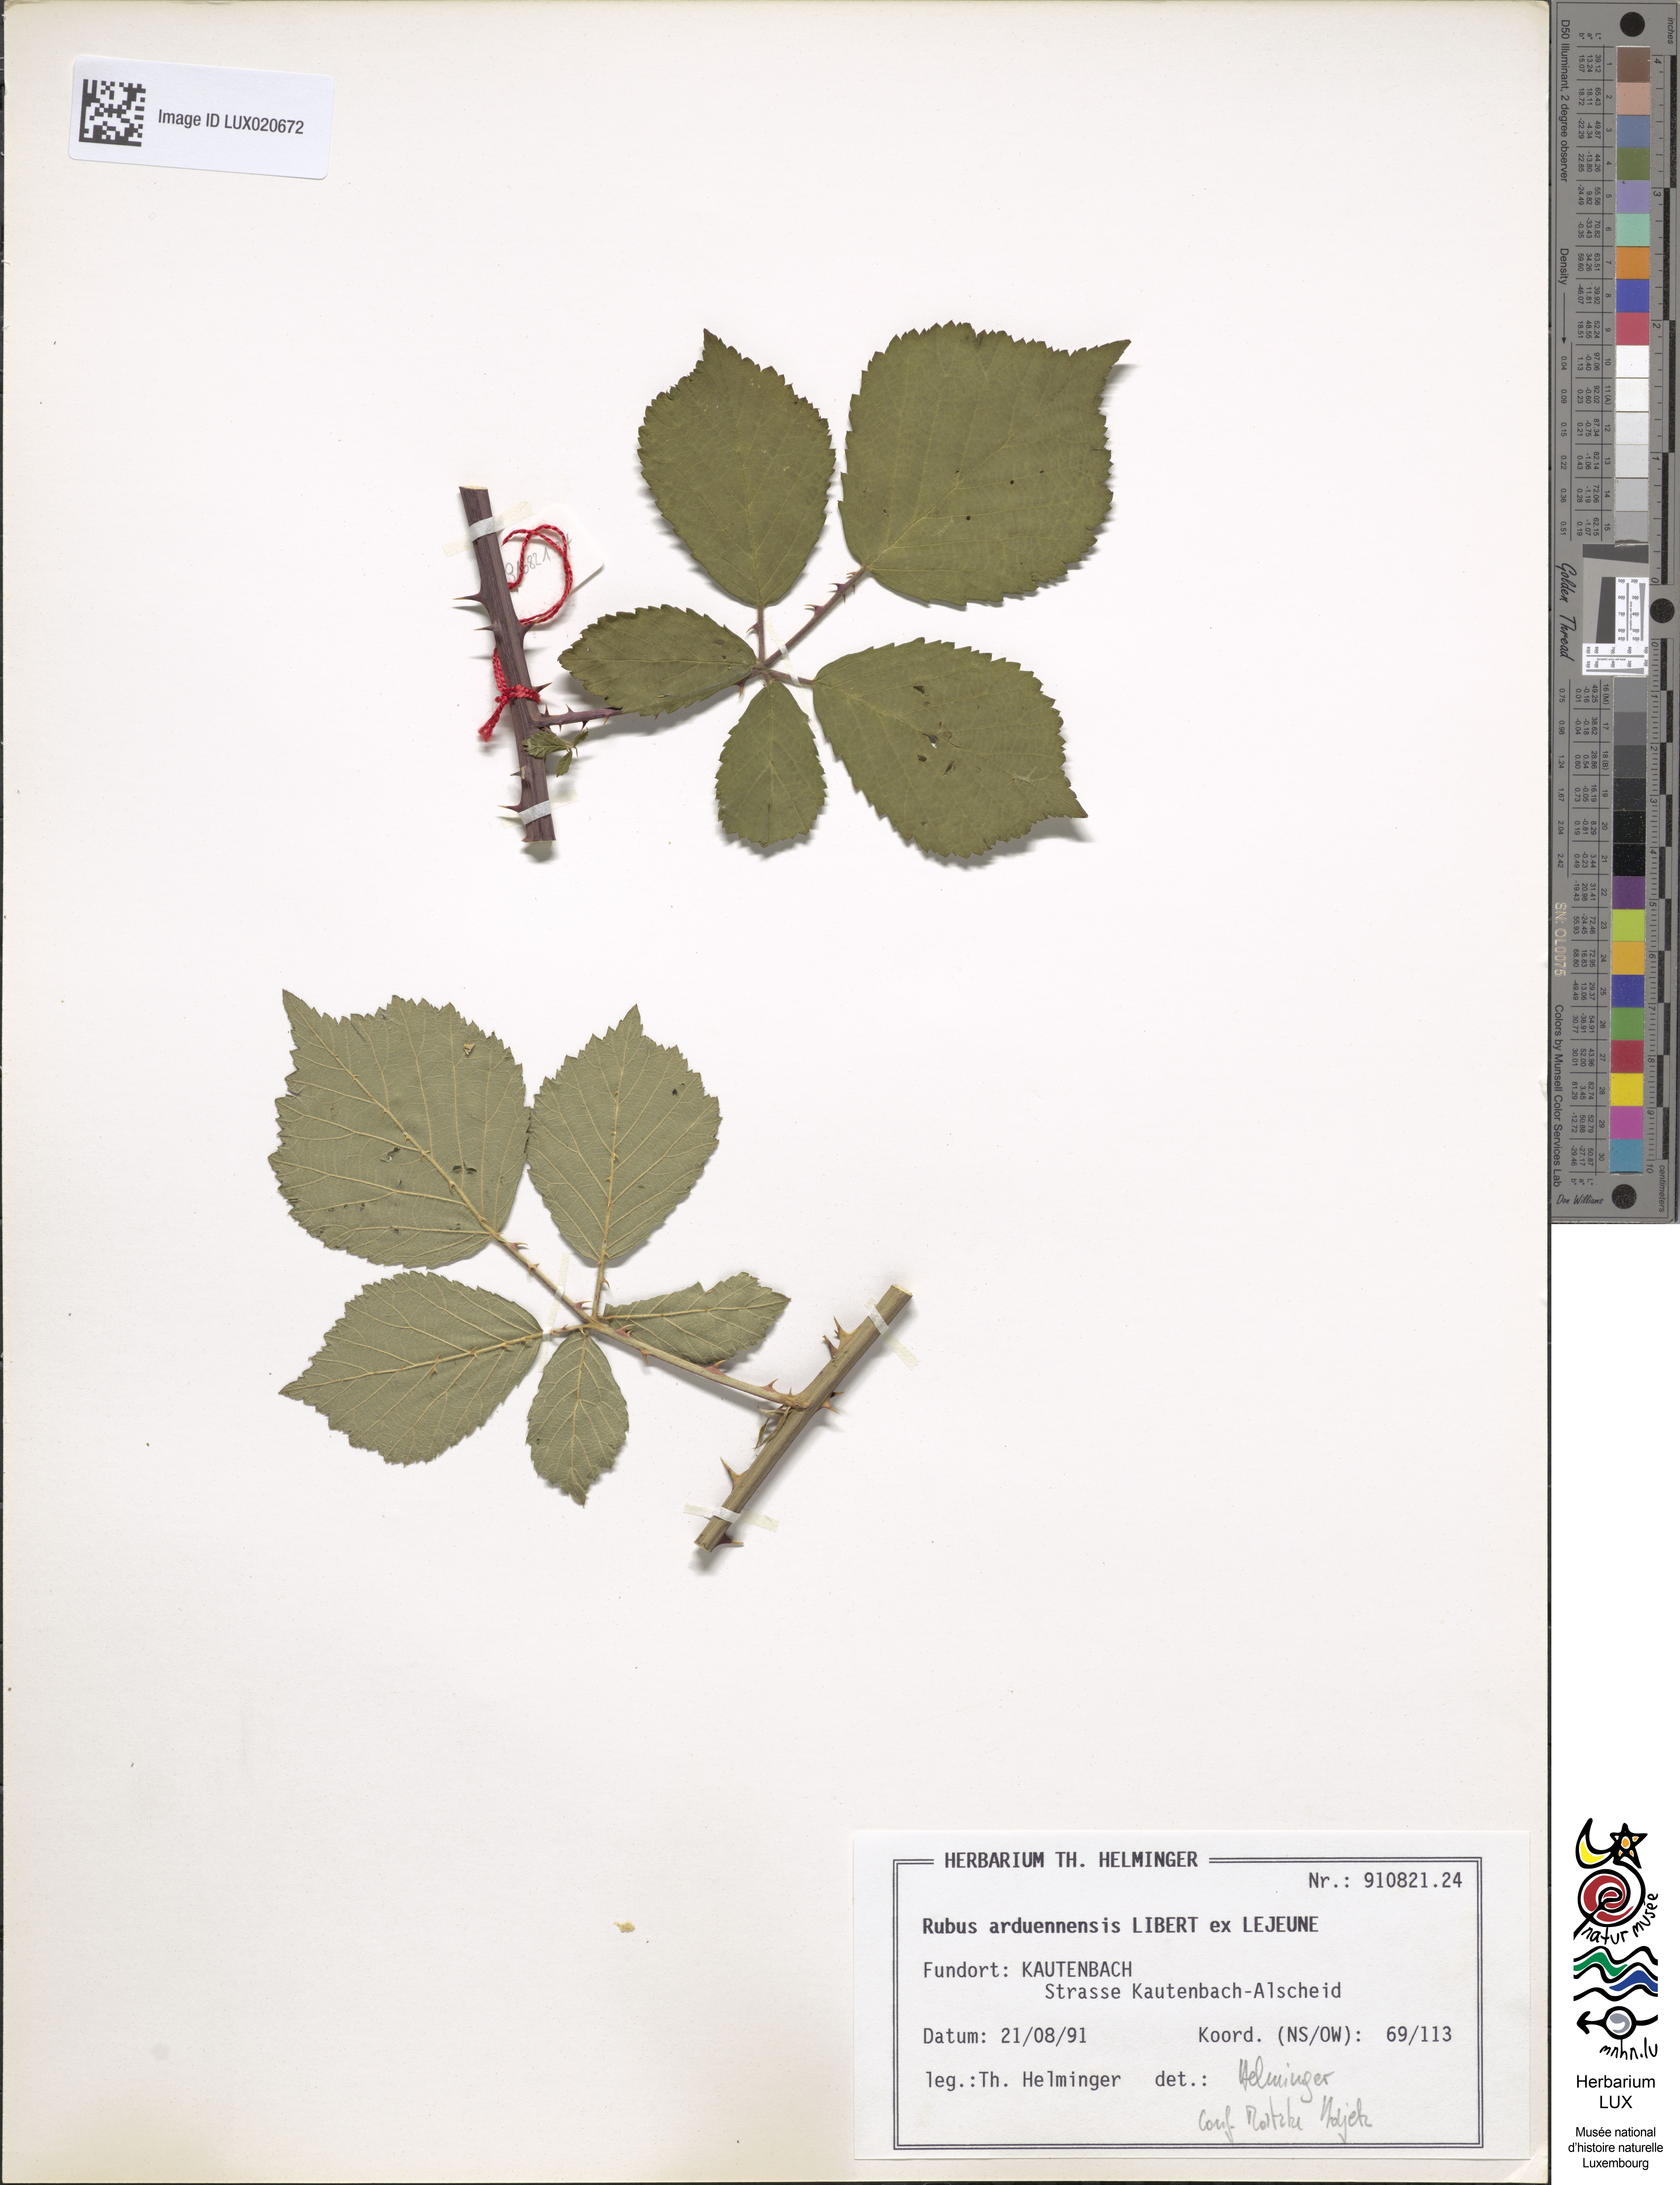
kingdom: Plantae
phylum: Tracheophyta
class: Magnoliopsida
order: Rosales
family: Rosaceae
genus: Rubus
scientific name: Rubus arduennensis
